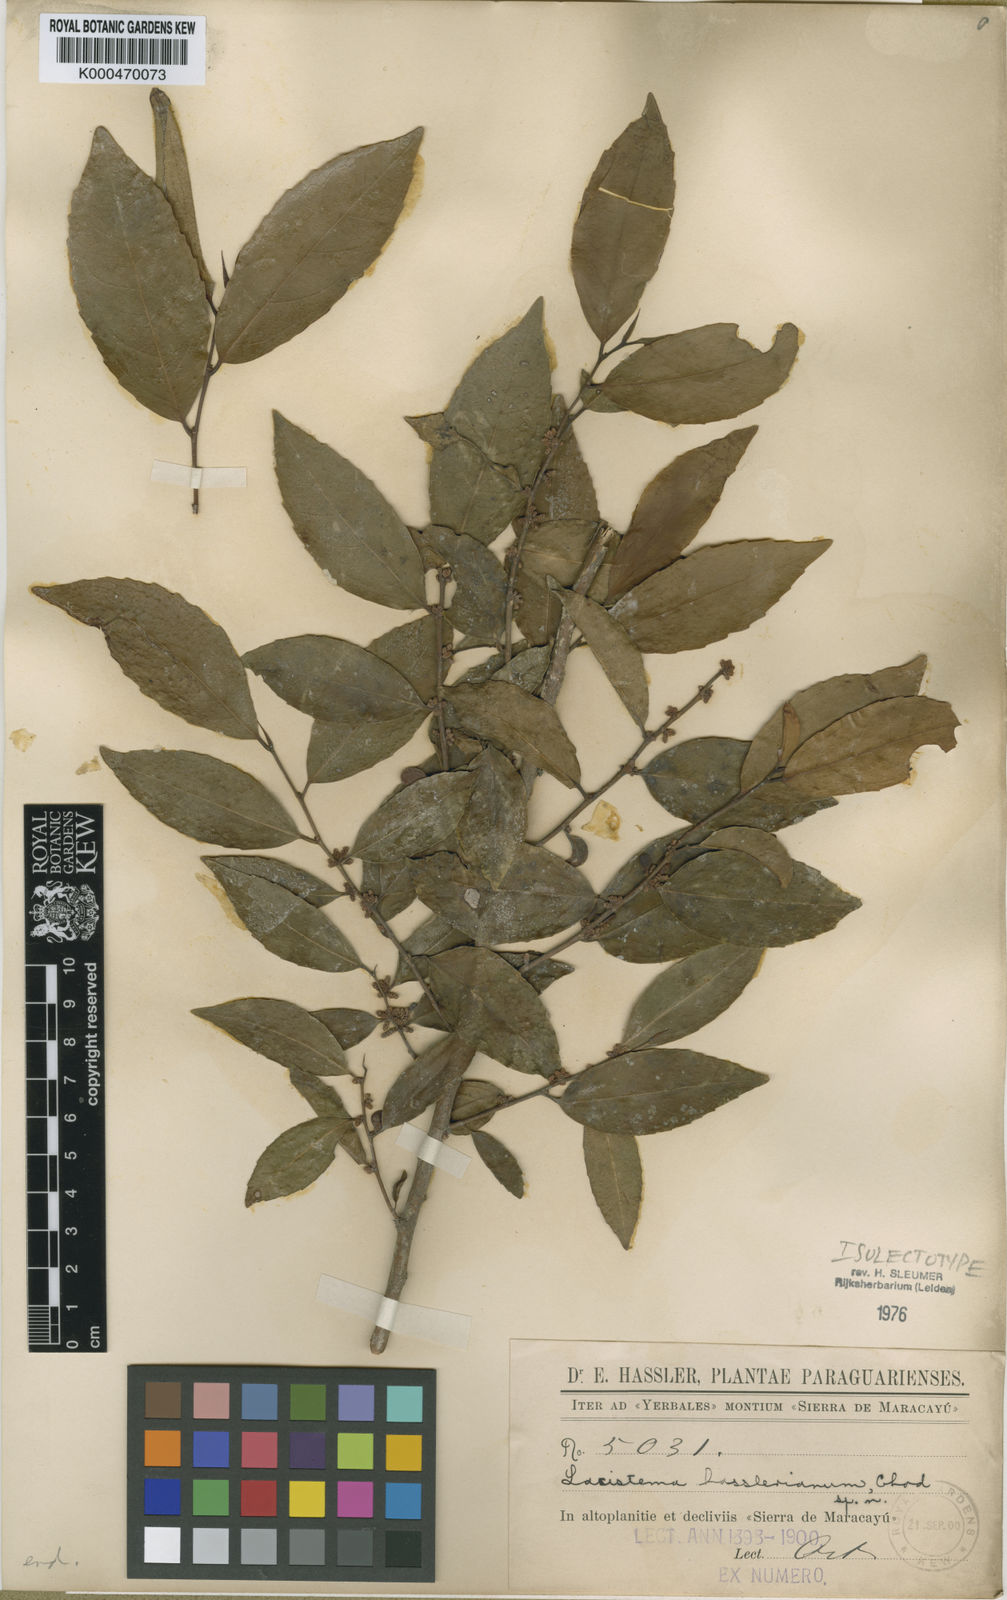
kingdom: Plantae
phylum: Tracheophyta
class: Magnoliopsida
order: Malpighiales
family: Lacistemataceae
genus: Lacistema
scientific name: Lacistema hasslerianum
